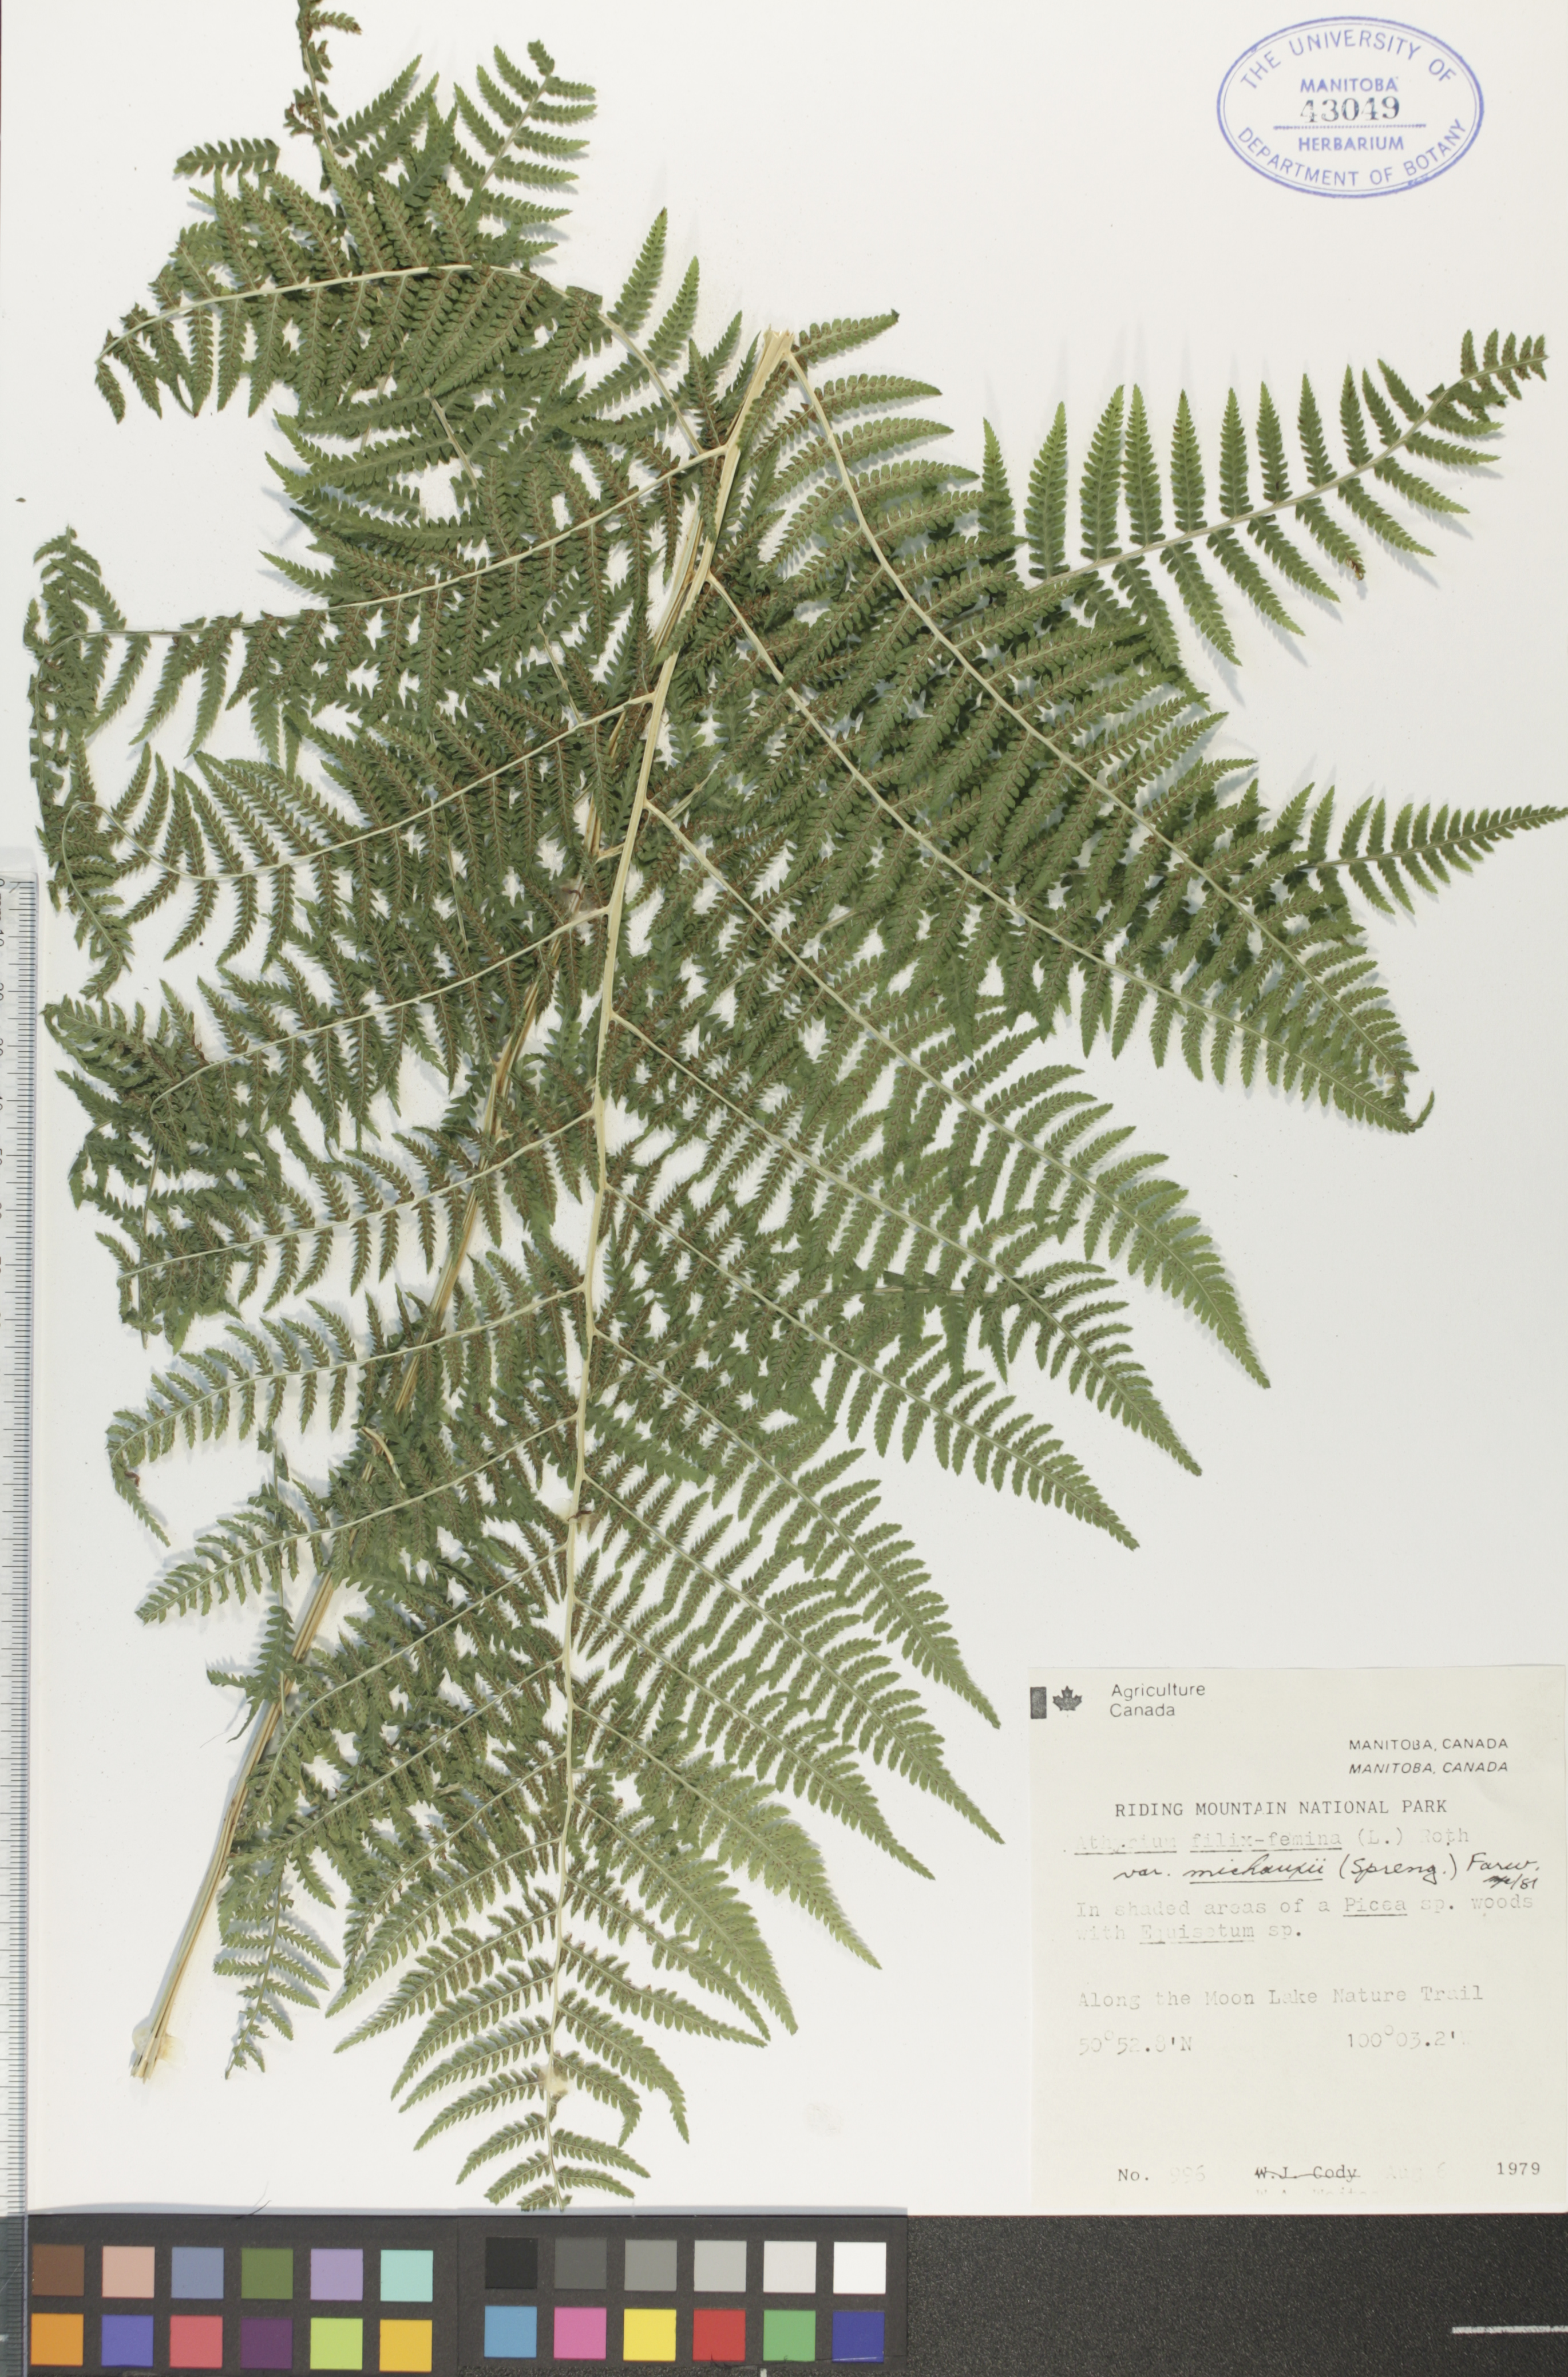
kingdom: Plantae
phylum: Tracheophyta
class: Polypodiopsida
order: Polypodiales
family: Athyriaceae
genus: Athyrium
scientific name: Athyrium angustum
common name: Northern lady fern
